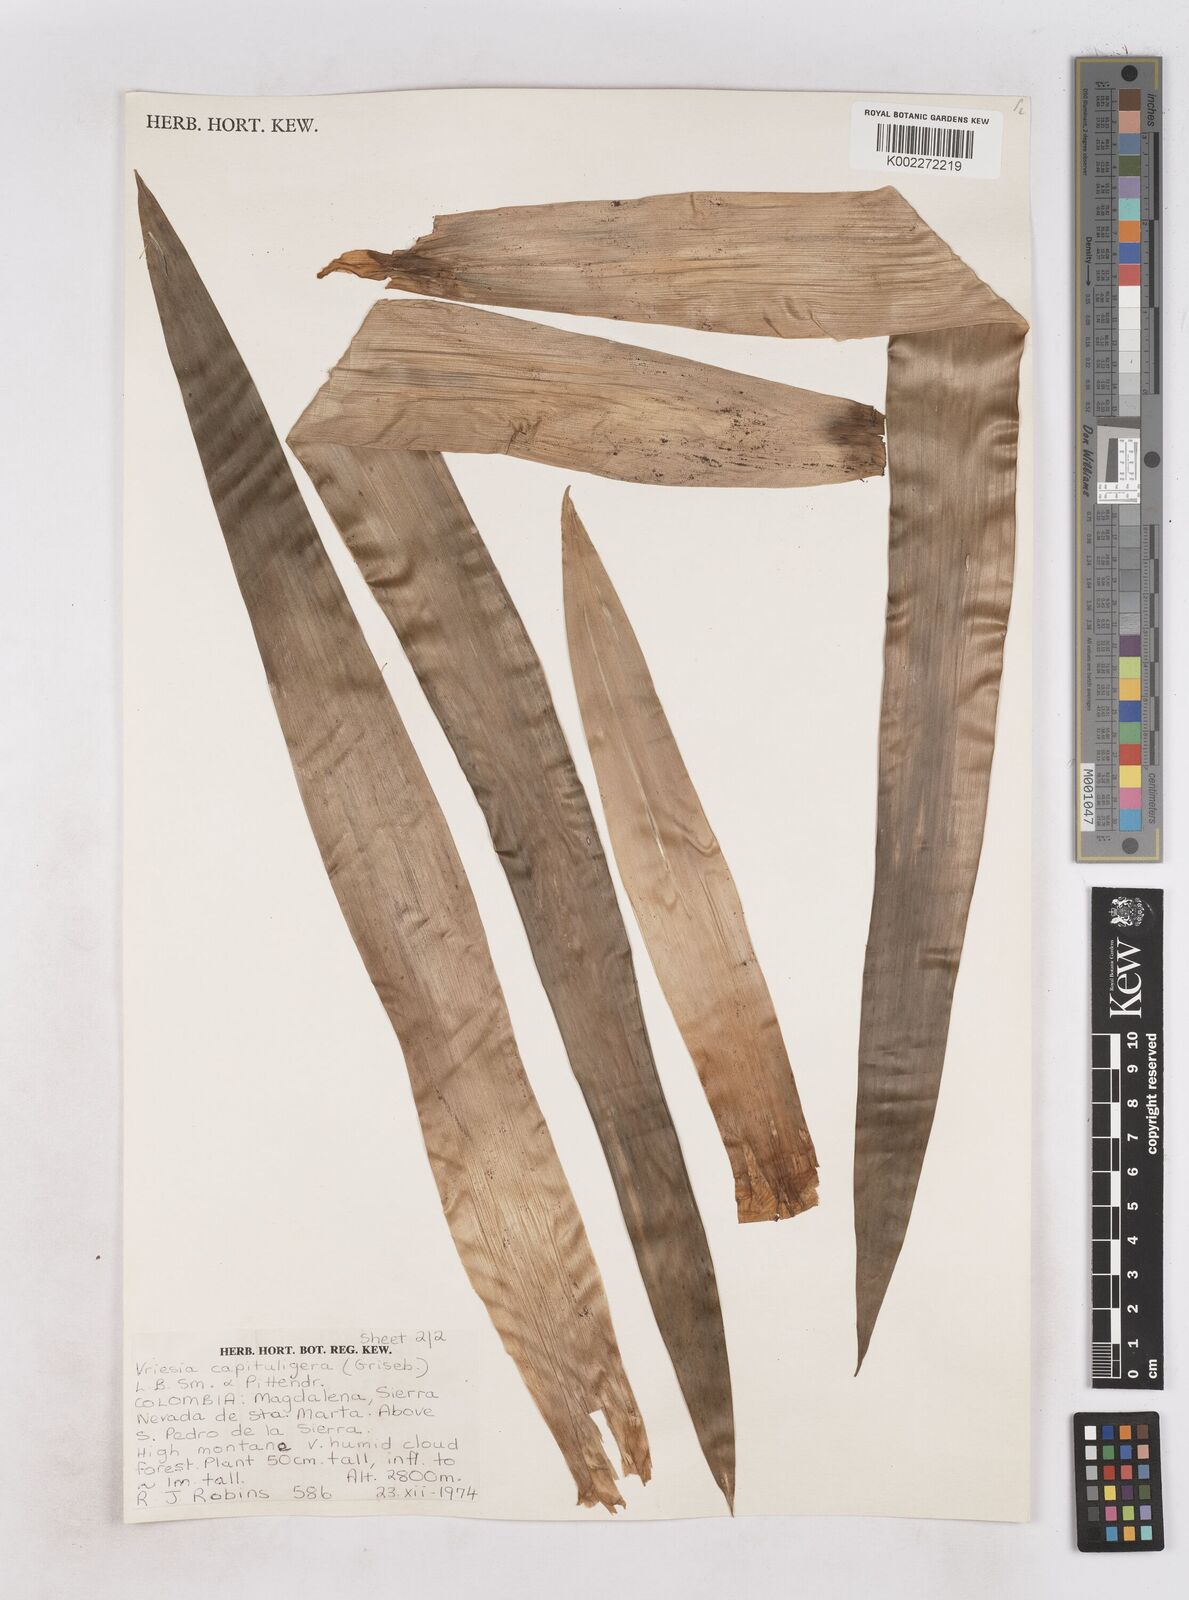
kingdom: Plantae
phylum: Tracheophyta
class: Liliopsida
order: Poales
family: Bromeliaceae
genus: Cipuropsis
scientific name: Cipuropsis capituligera
